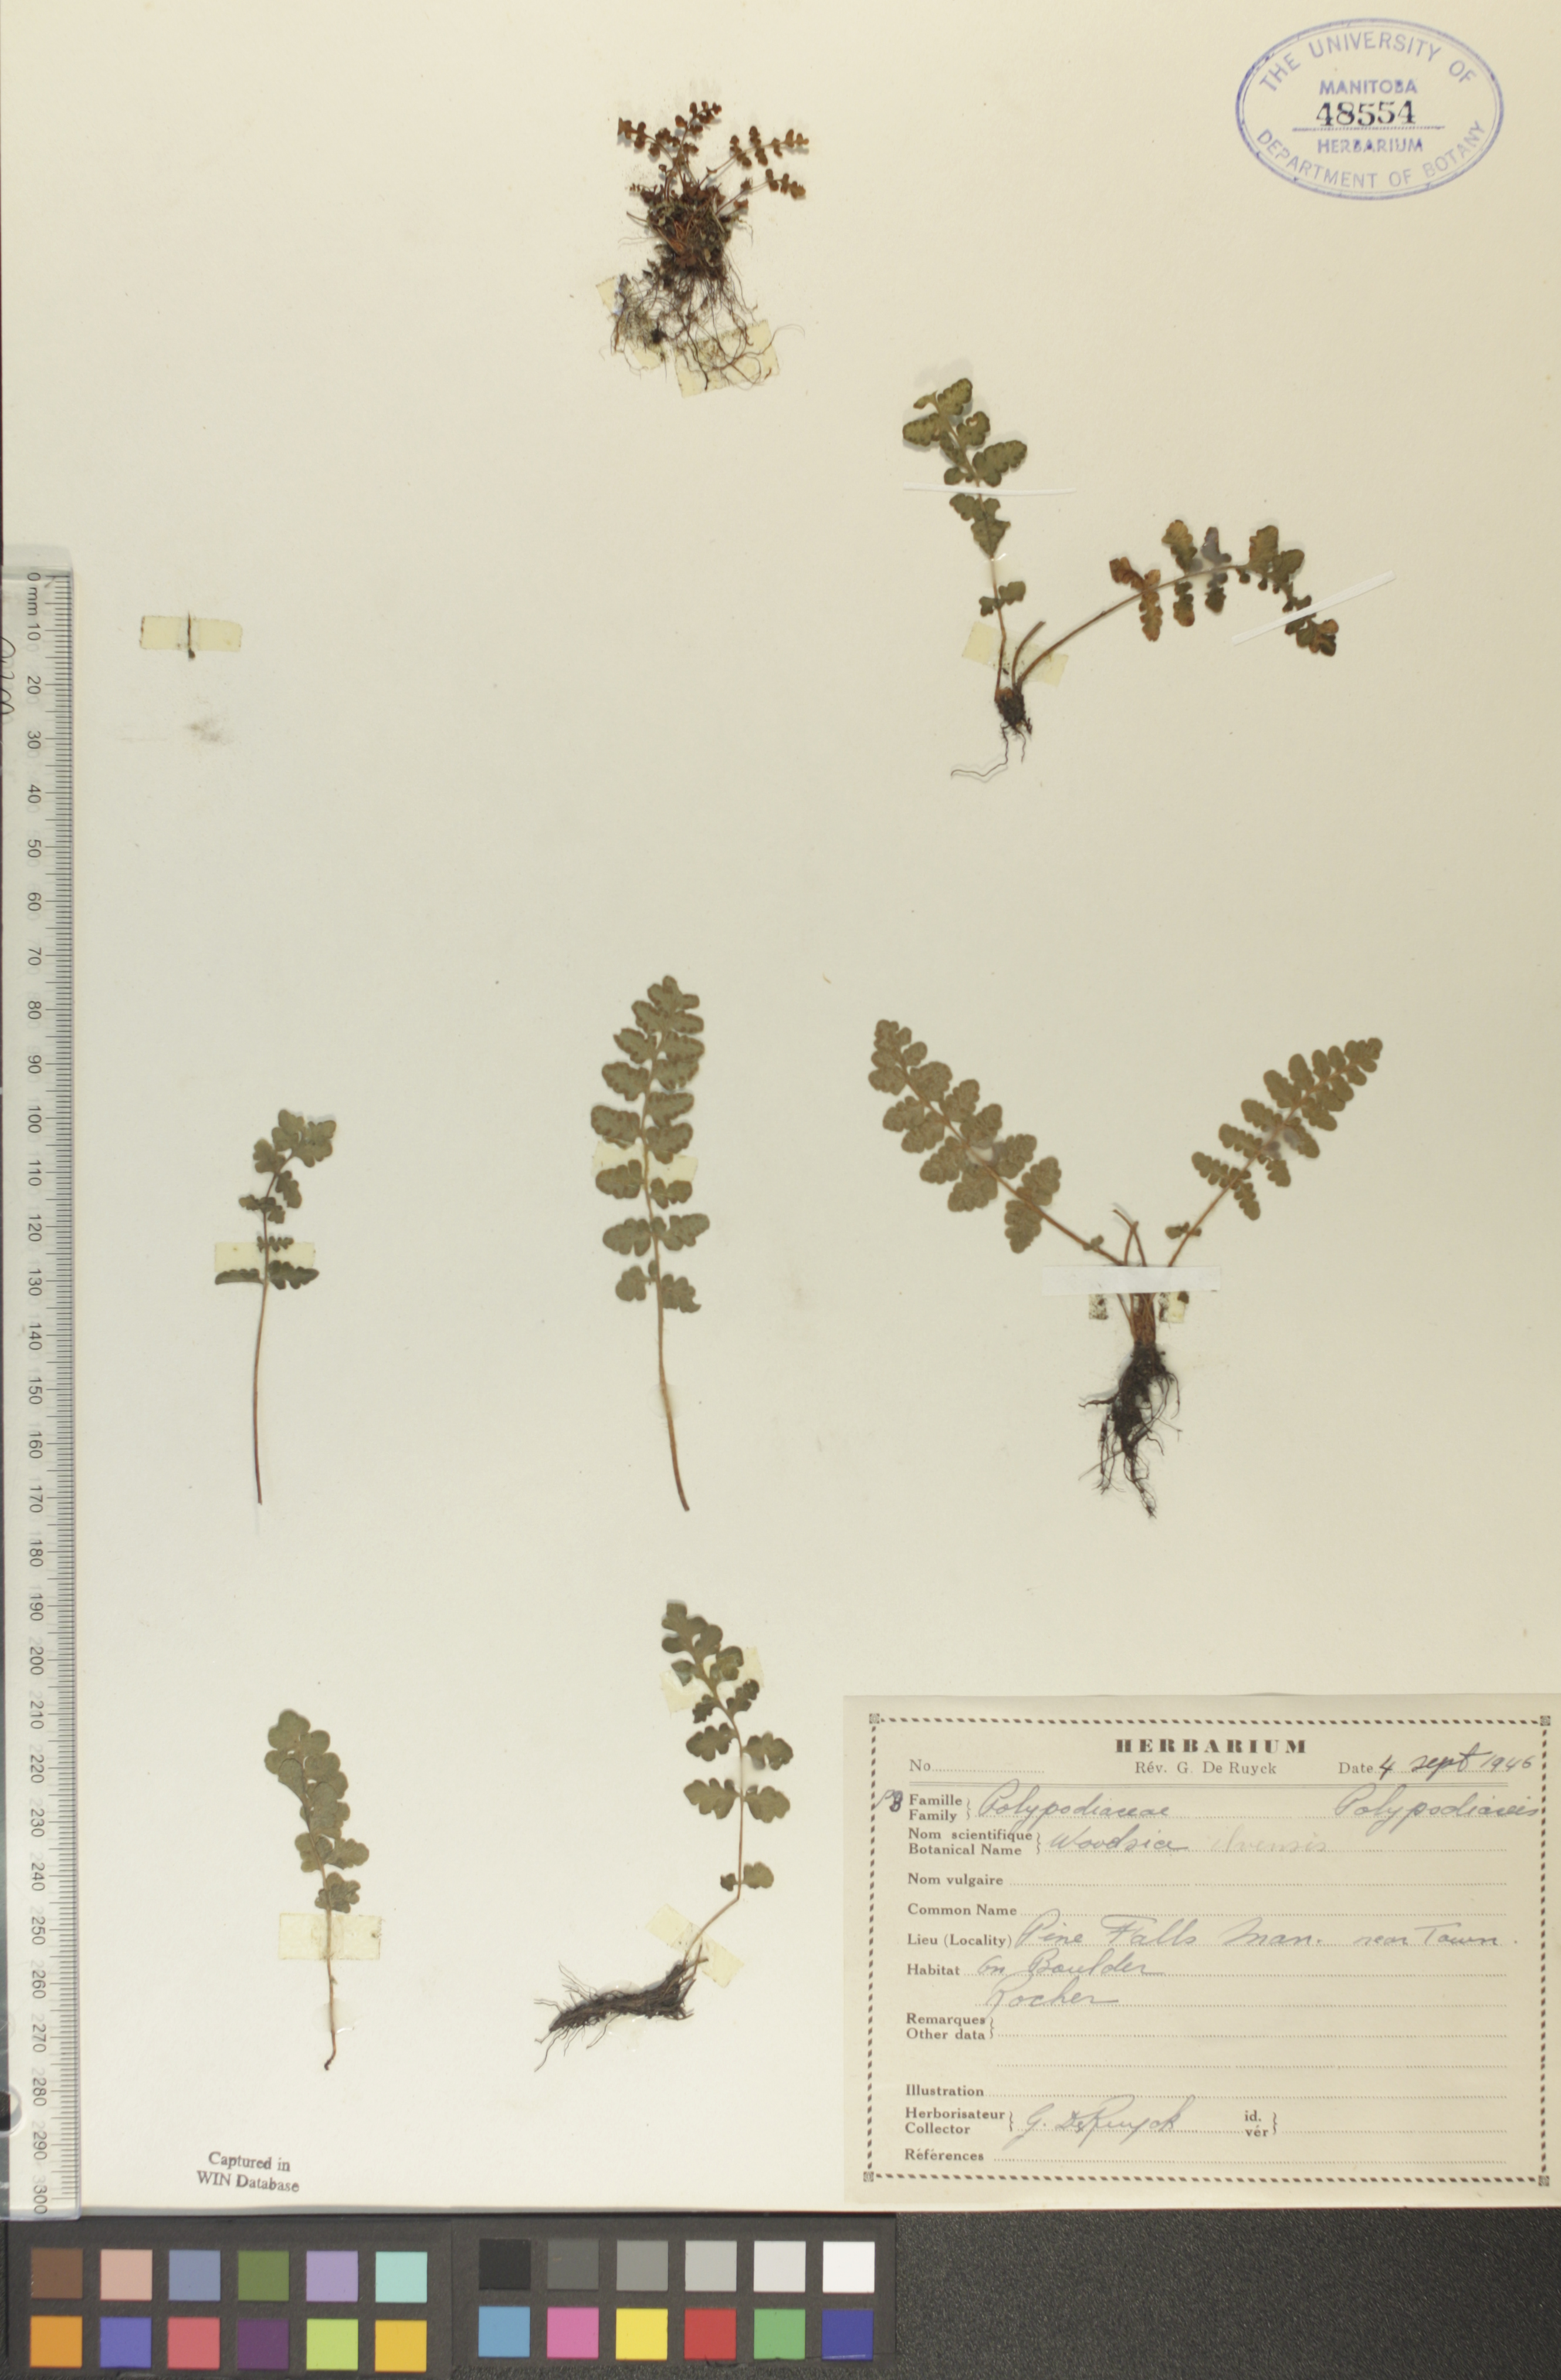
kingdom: Plantae
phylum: Tracheophyta
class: Polypodiopsida
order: Polypodiales
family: Woodsiaceae
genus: Woodsia
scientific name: Woodsia ilvensis
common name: Fragrant woodsia
